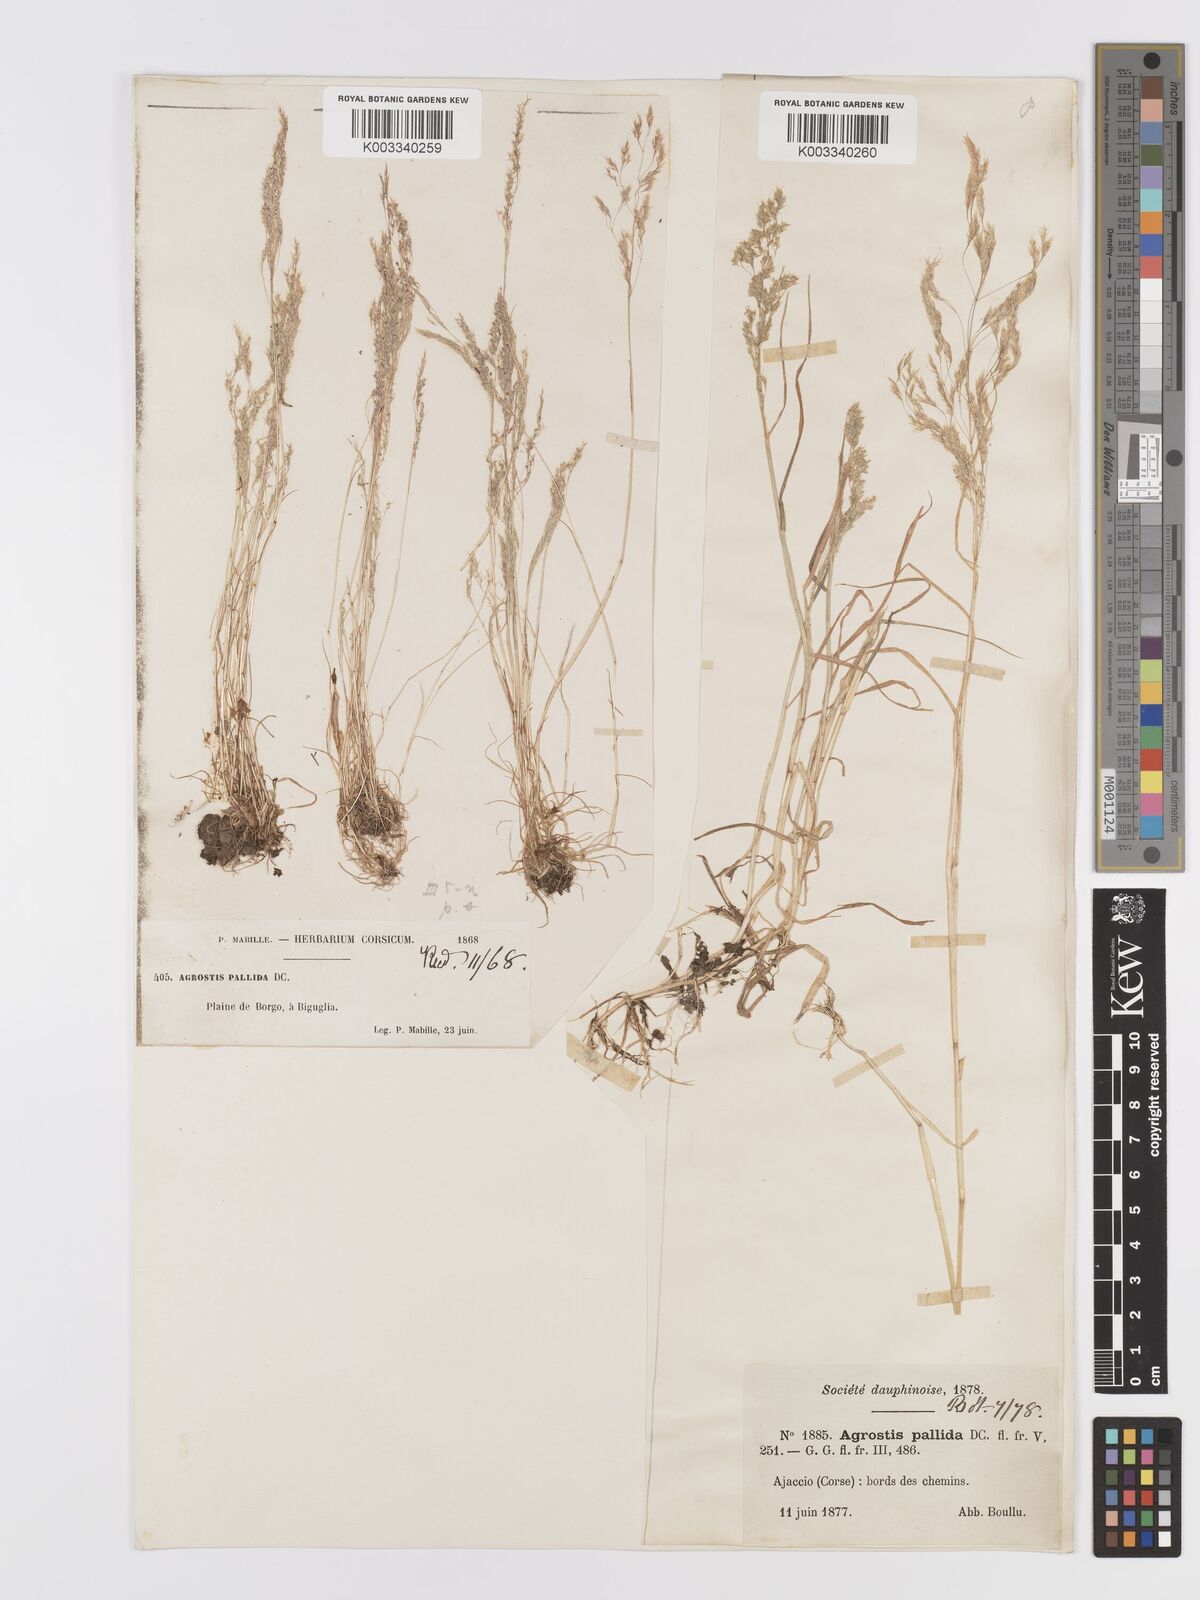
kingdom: Plantae
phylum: Tracheophyta
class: Liliopsida
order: Poales
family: Poaceae
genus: Agrostis
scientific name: Agrostis pourretii
